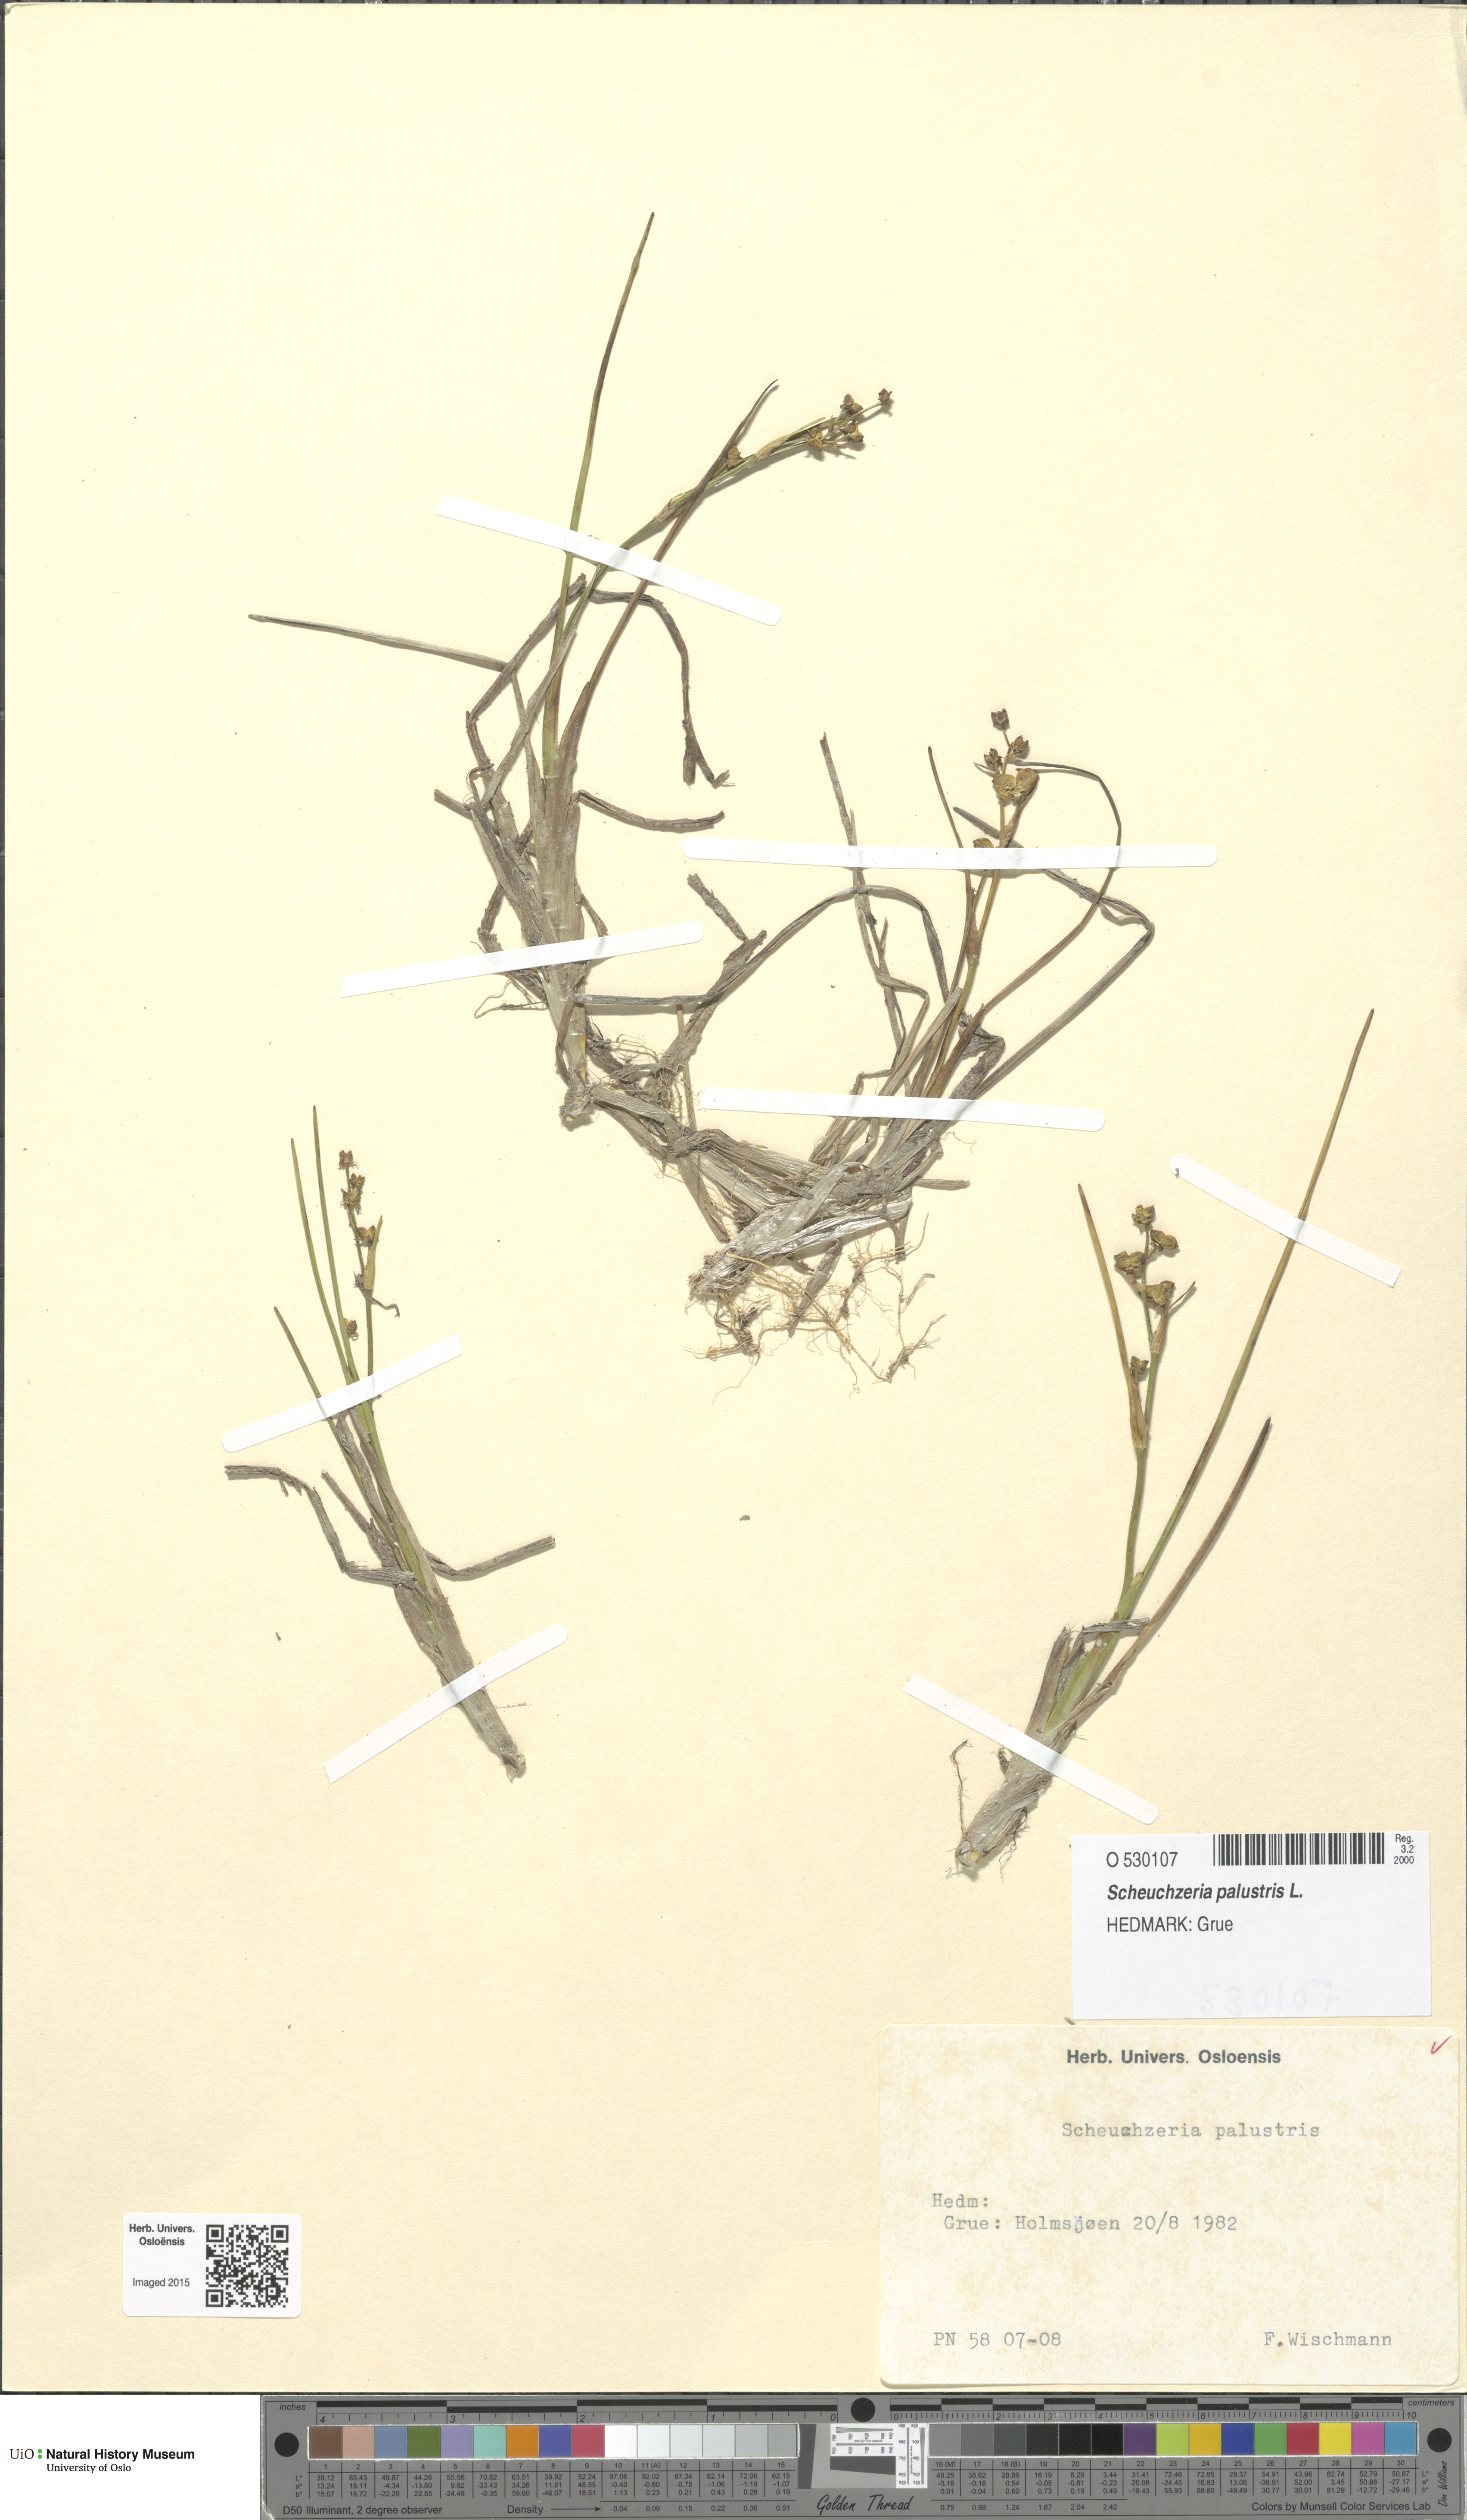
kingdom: Plantae
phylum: Tracheophyta
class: Liliopsida
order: Alismatales
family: Scheuchzeriaceae
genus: Scheuchzeria
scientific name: Scheuchzeria palustris
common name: Rannoch-rush
